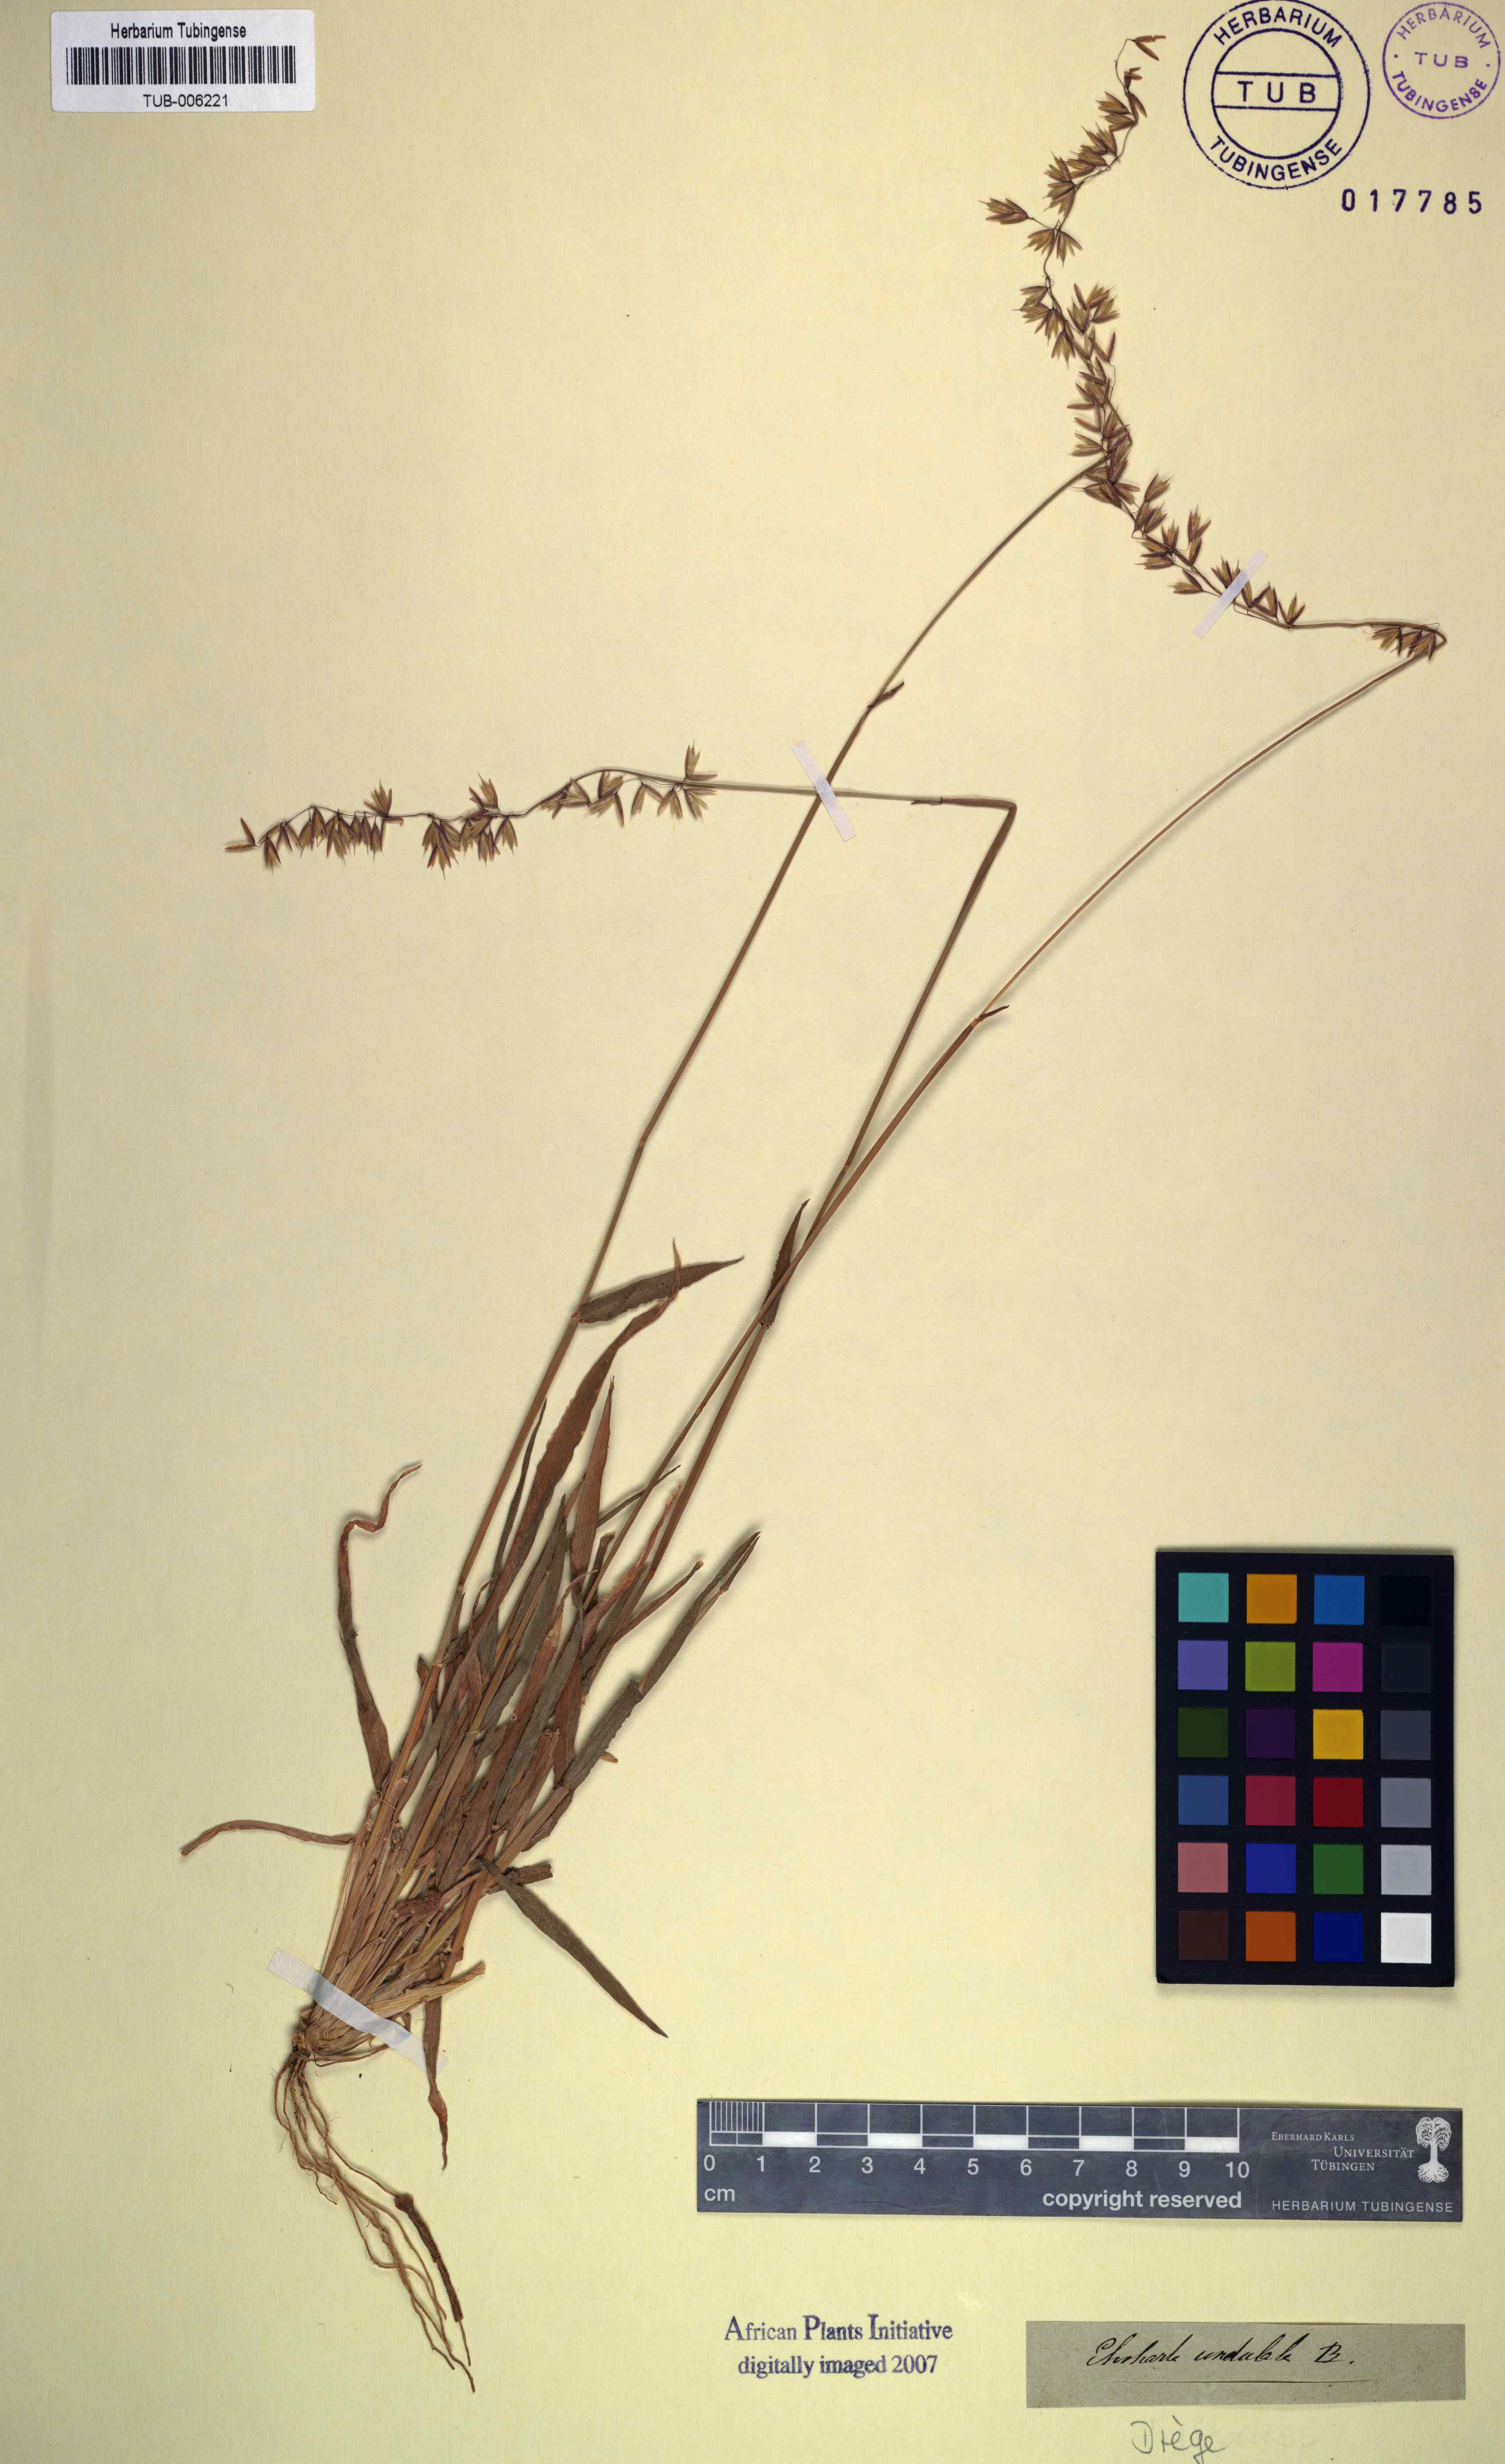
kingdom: Plantae
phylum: Tracheophyta
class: Liliopsida
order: Poales
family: Poaceae
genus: Ehrharta
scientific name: Ehrharta calycina
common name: Perennial veldtgrass
